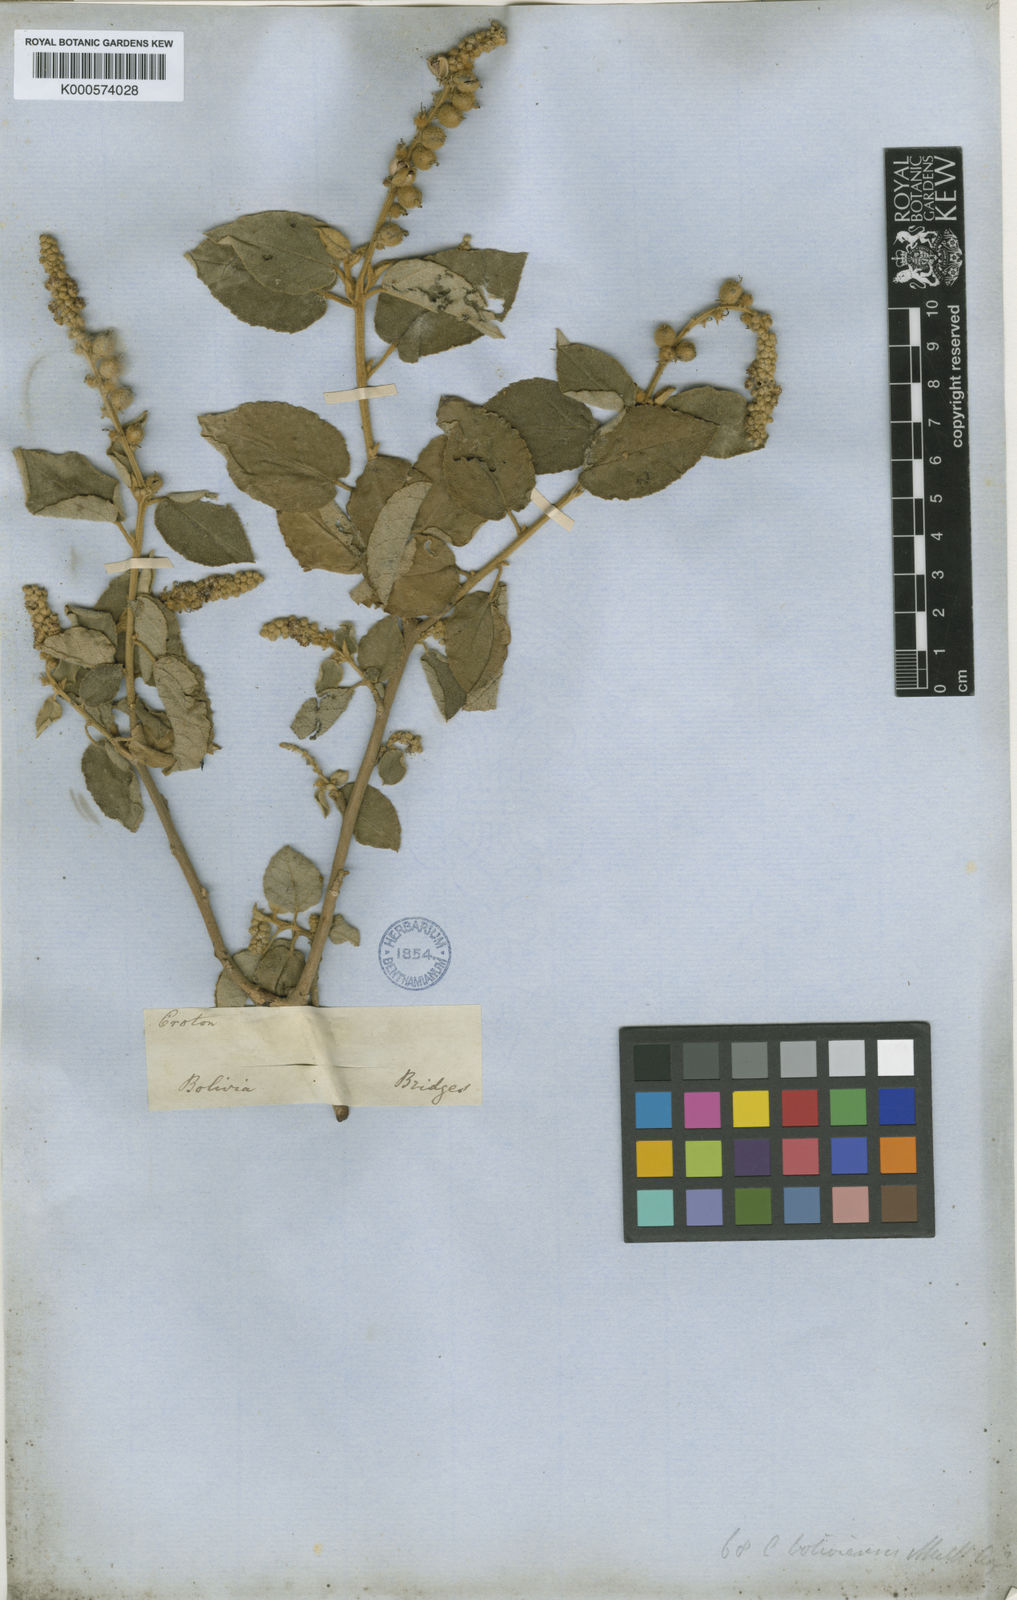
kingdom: Plantae
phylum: Tracheophyta
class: Magnoliopsida
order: Malpighiales
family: Euphorbiaceae
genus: Croton
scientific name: Croton
